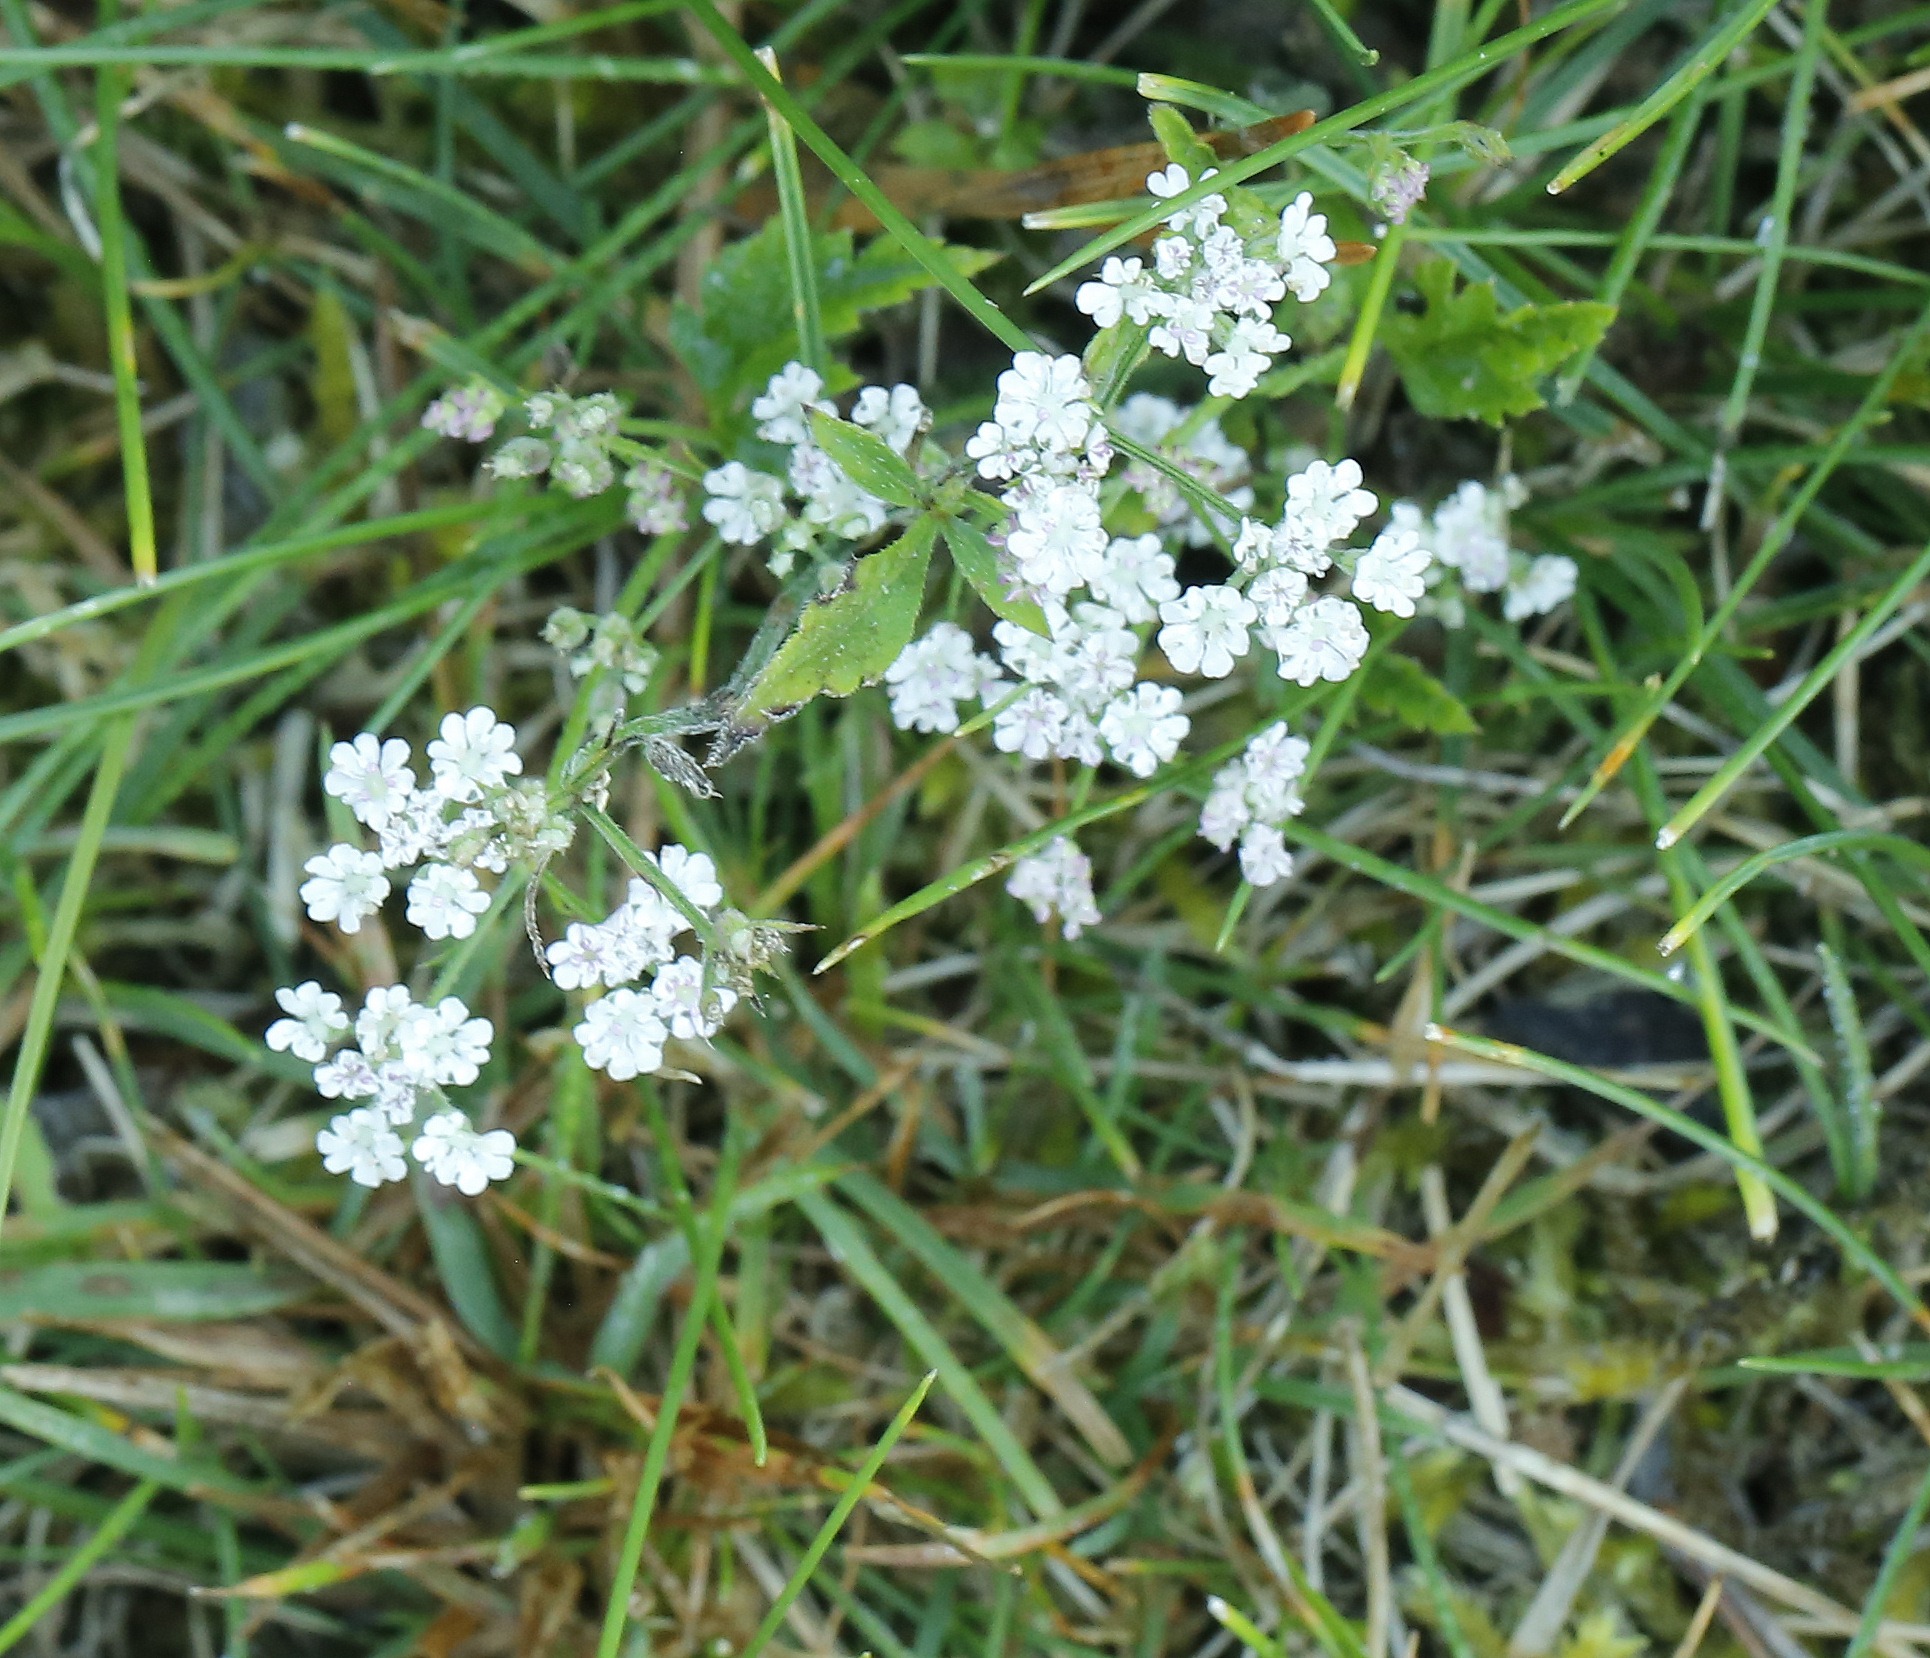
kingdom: Plantae
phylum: Tracheophyta
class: Magnoliopsida
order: Apiales
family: Apiaceae
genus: Torilis
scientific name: Torilis japonica
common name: Hvas randfrø
